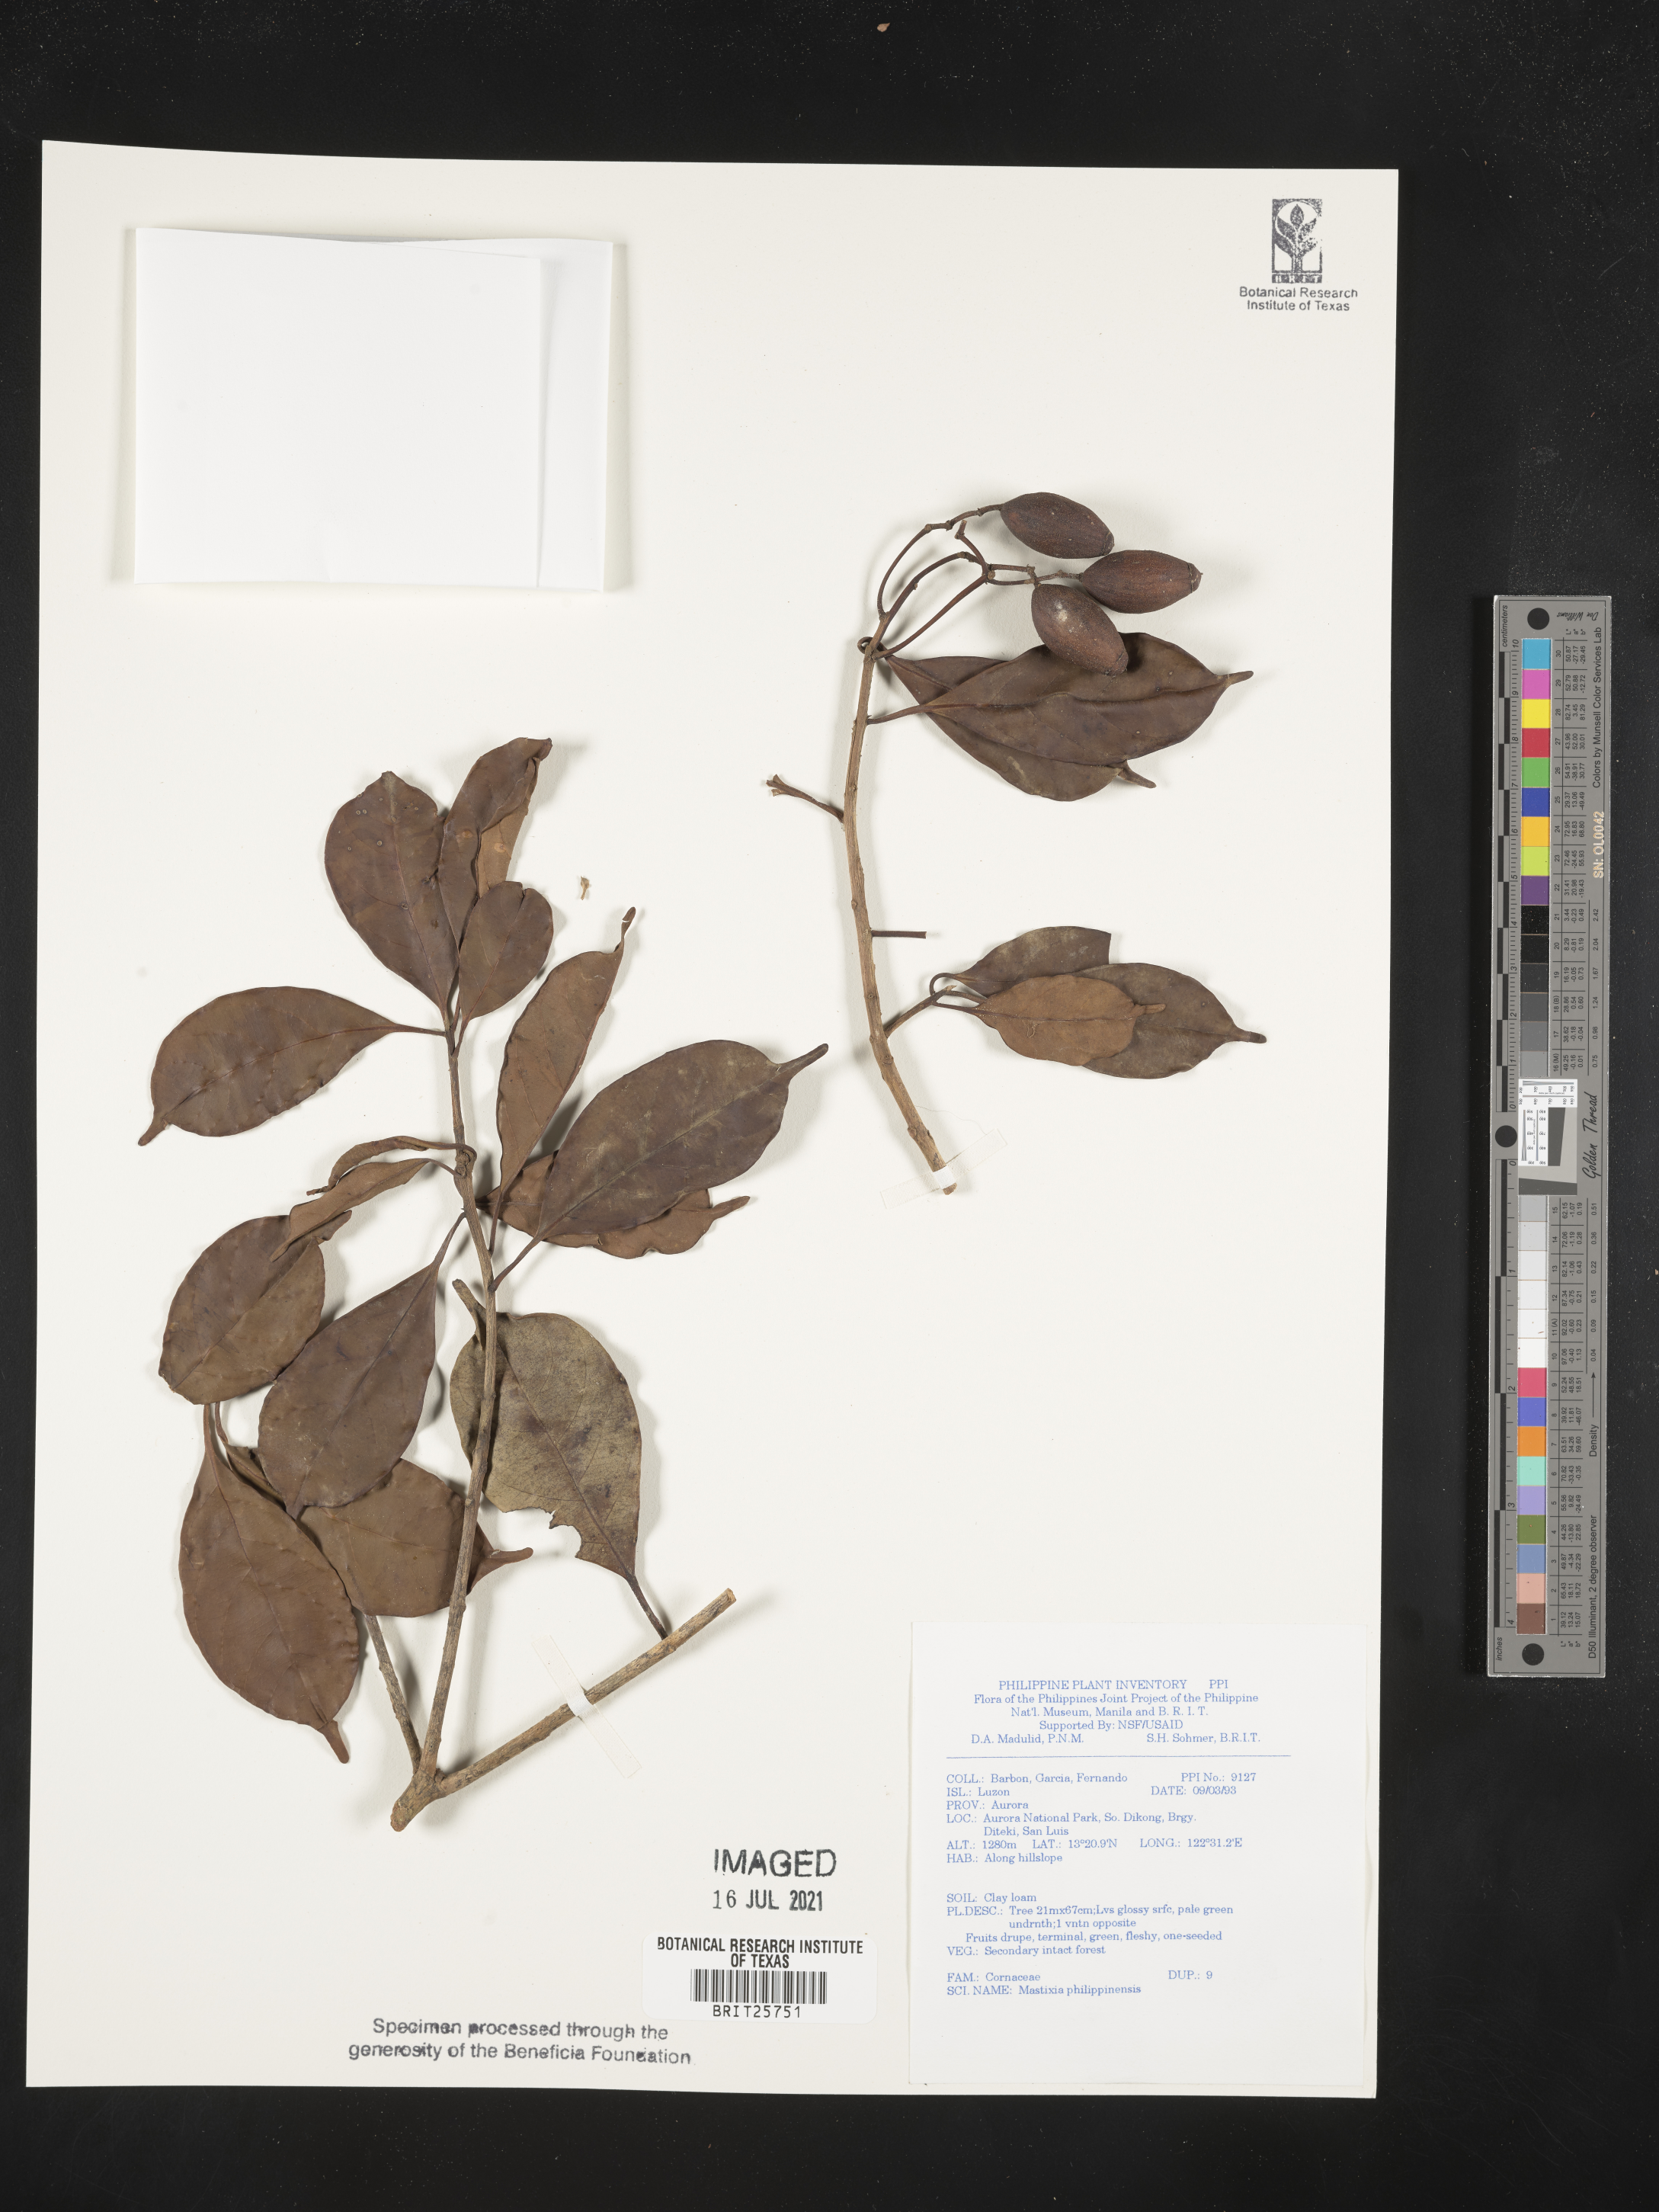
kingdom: Plantae
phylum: Tracheophyta
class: Magnoliopsida
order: Cornales
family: Nyssaceae
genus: Mastixia
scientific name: Mastixia pentandra
